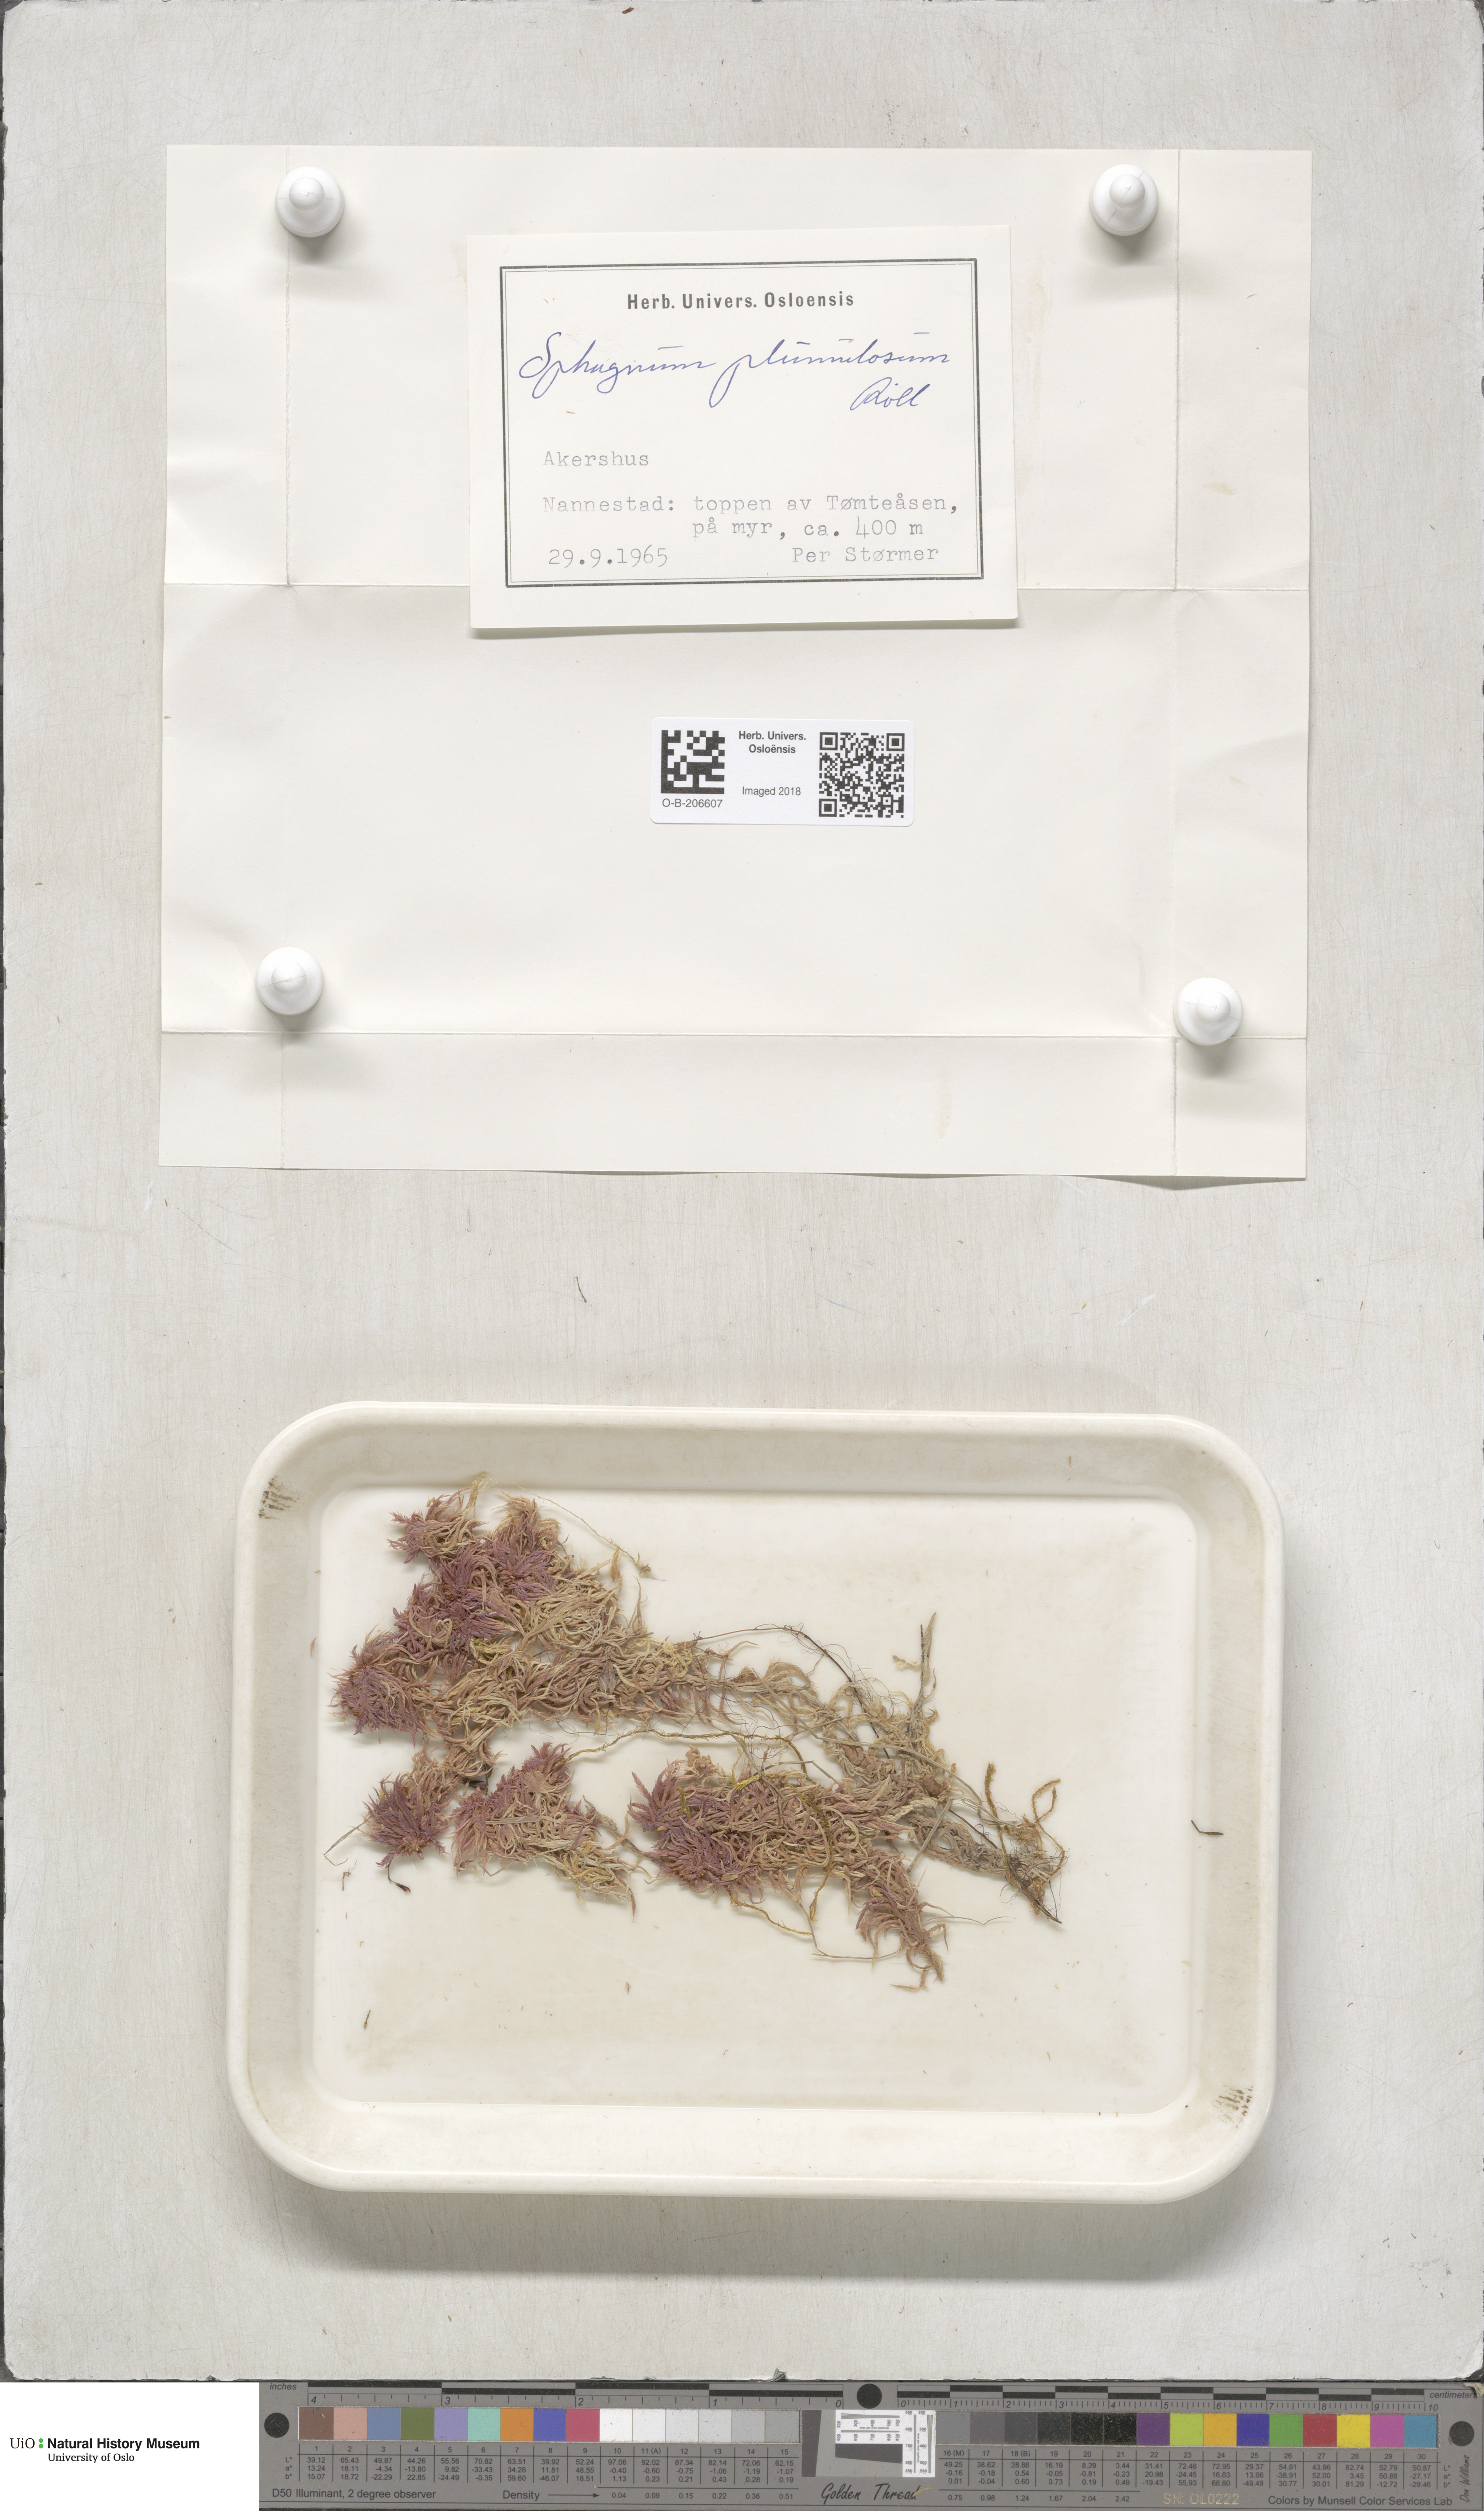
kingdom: Plantae
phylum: Bryophyta
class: Sphagnopsida
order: Sphagnales
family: Sphagnaceae
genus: Sphagnum
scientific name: Sphagnum subnitens
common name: Lustrous bog-moss
